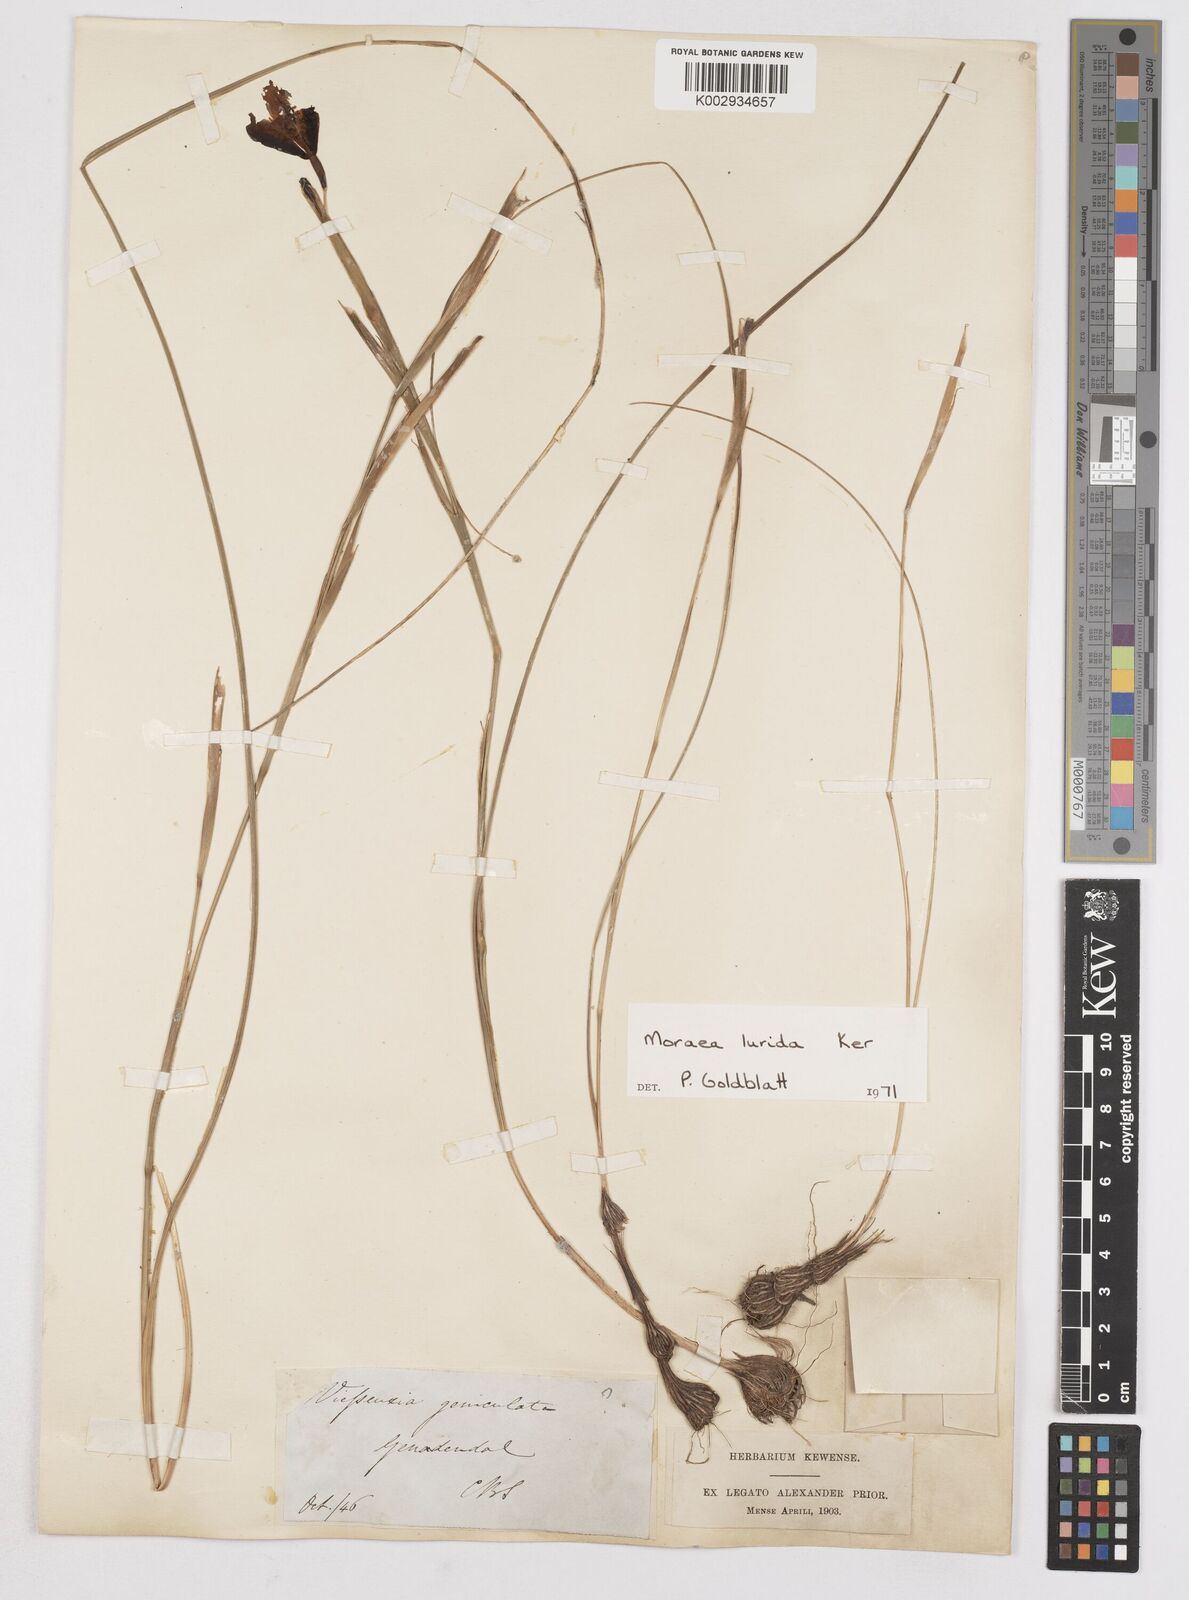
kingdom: Plantae
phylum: Tracheophyta
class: Liliopsida
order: Asparagales
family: Iridaceae
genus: Moraea
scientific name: Moraea lurida
